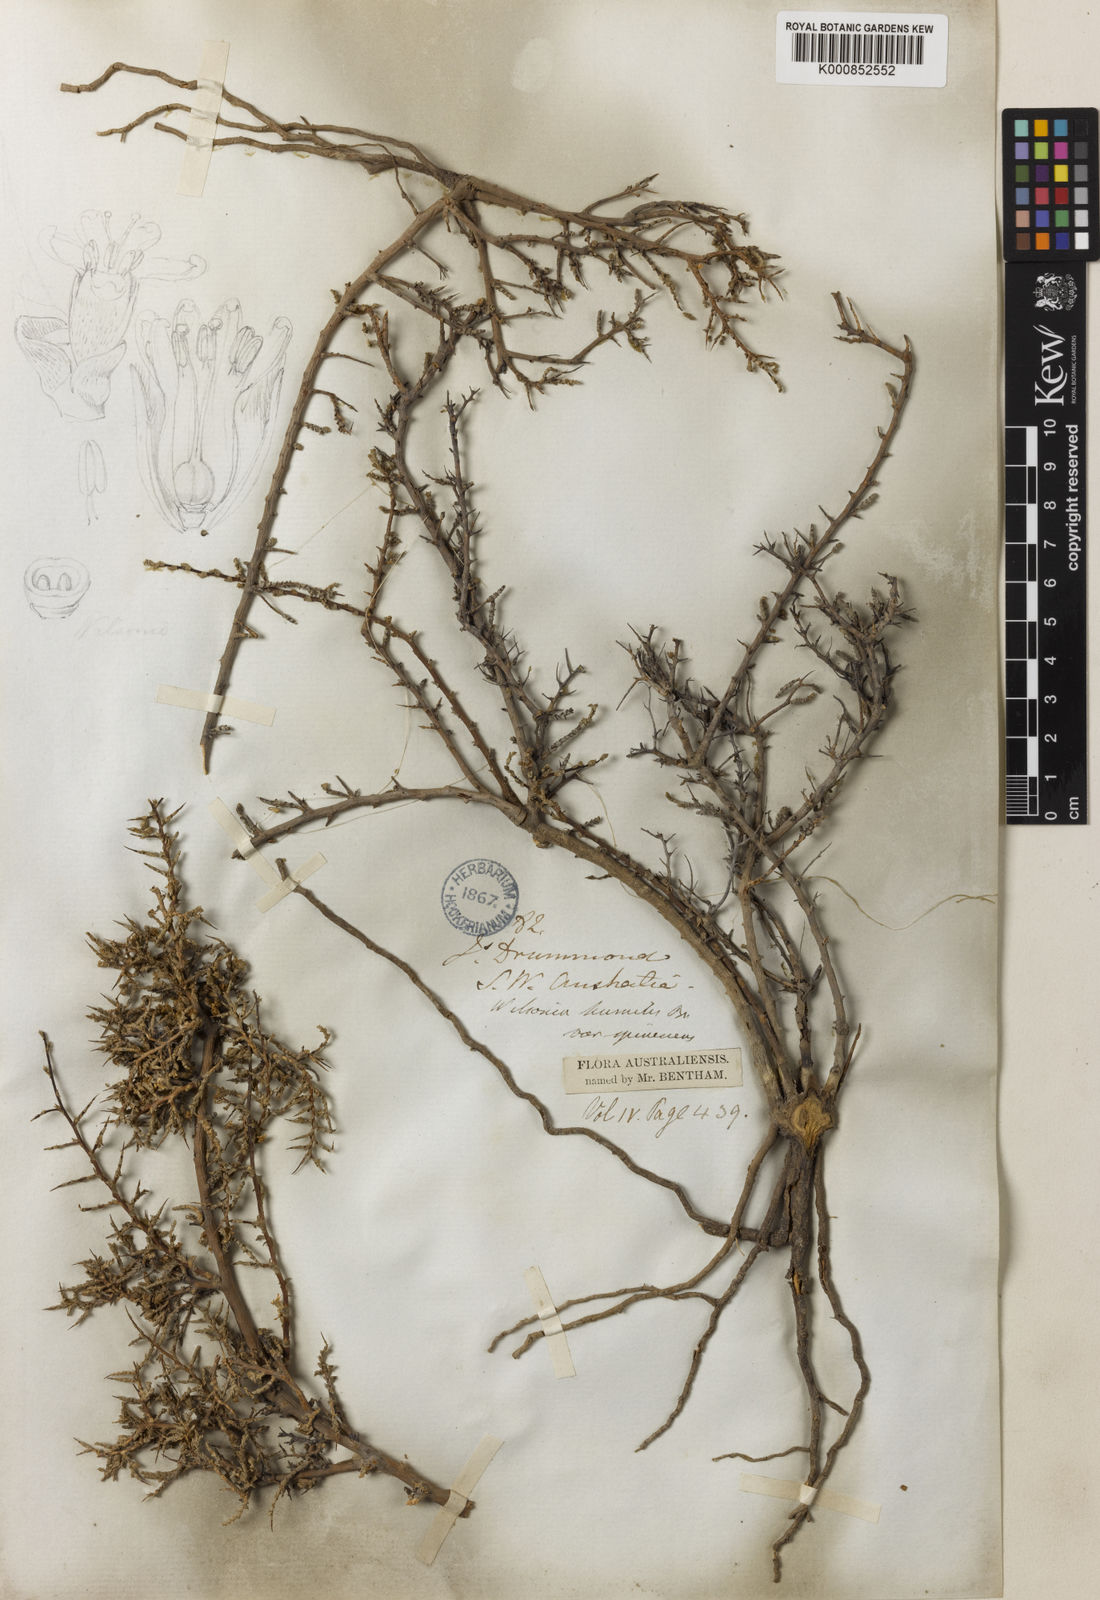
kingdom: Plantae
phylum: Tracheophyta
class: Magnoliopsida
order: Solanales
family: Convolvulaceae
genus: Wilsonia
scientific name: Wilsonia humilis
